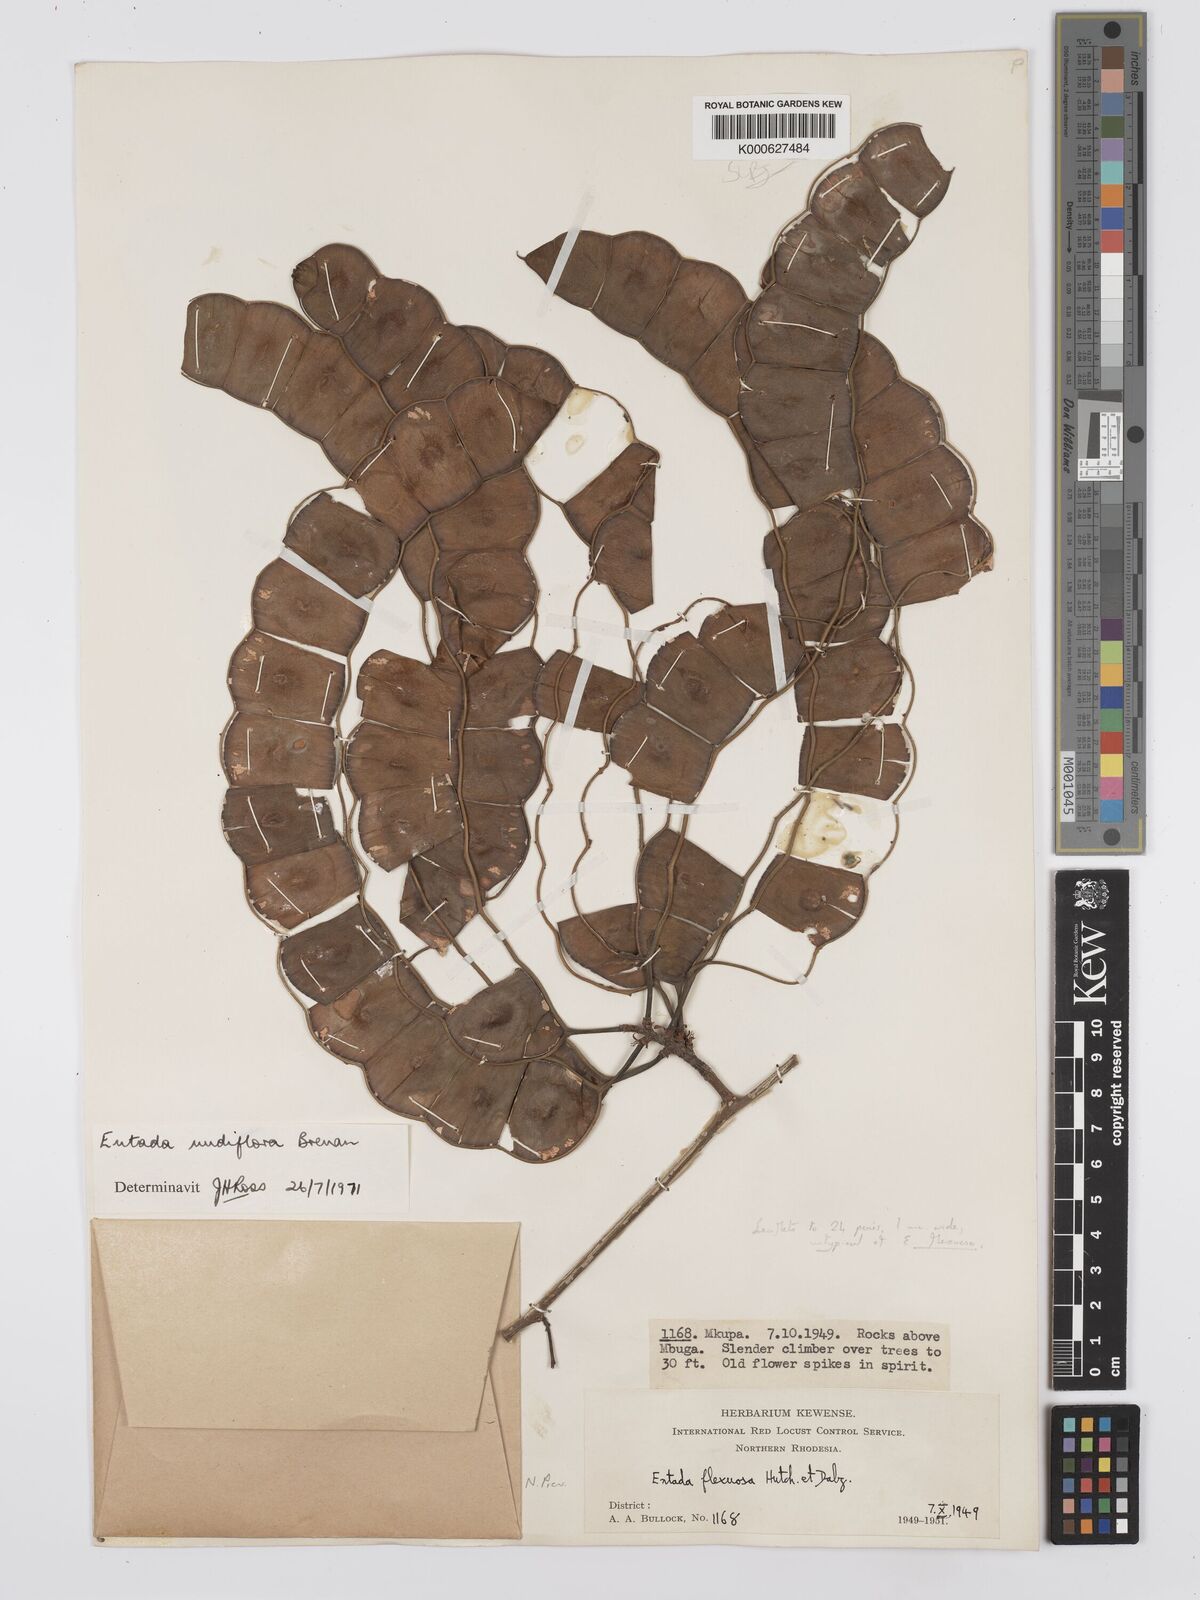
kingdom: Plantae
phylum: Tracheophyta
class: Magnoliopsida
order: Fabales
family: Fabaceae
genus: Entada
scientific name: Entada nudiflora
